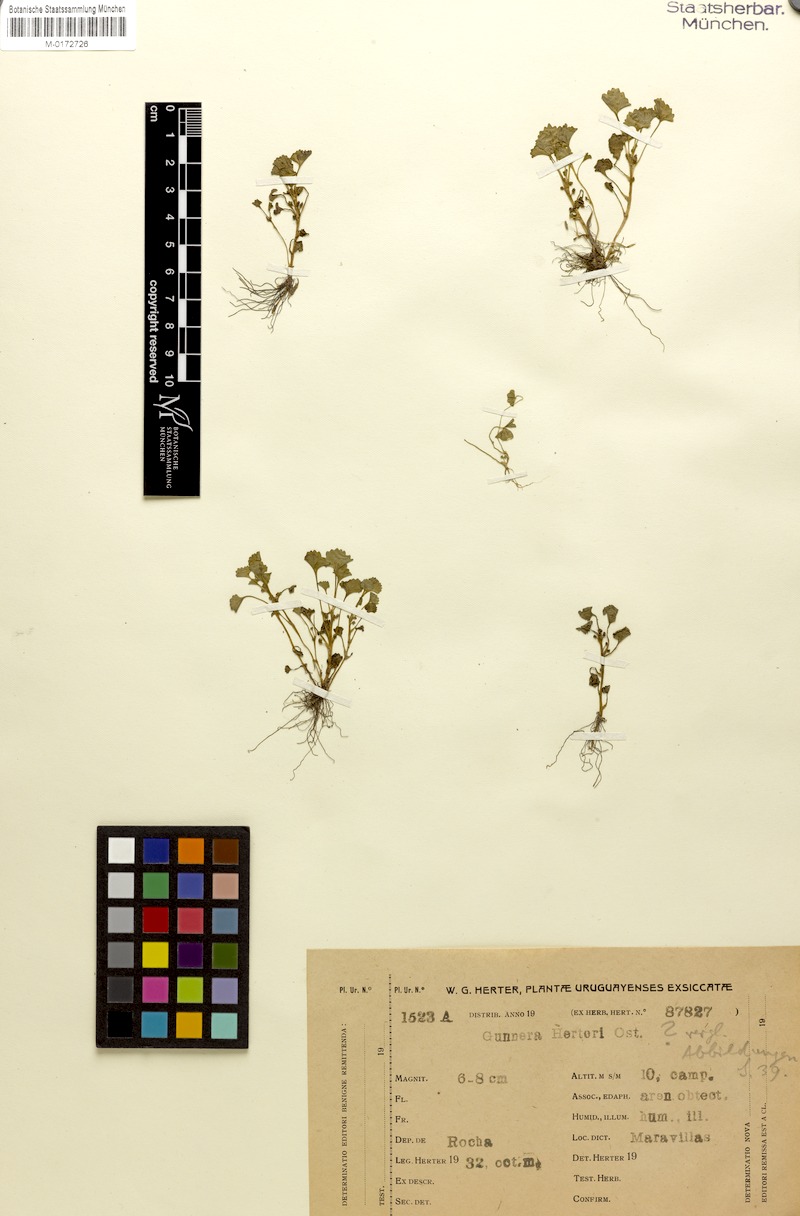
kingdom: Plantae
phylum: Tracheophyta
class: Magnoliopsida
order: Gunnerales
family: Gunneraceae
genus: Gunnera
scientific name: Gunnera herteri
